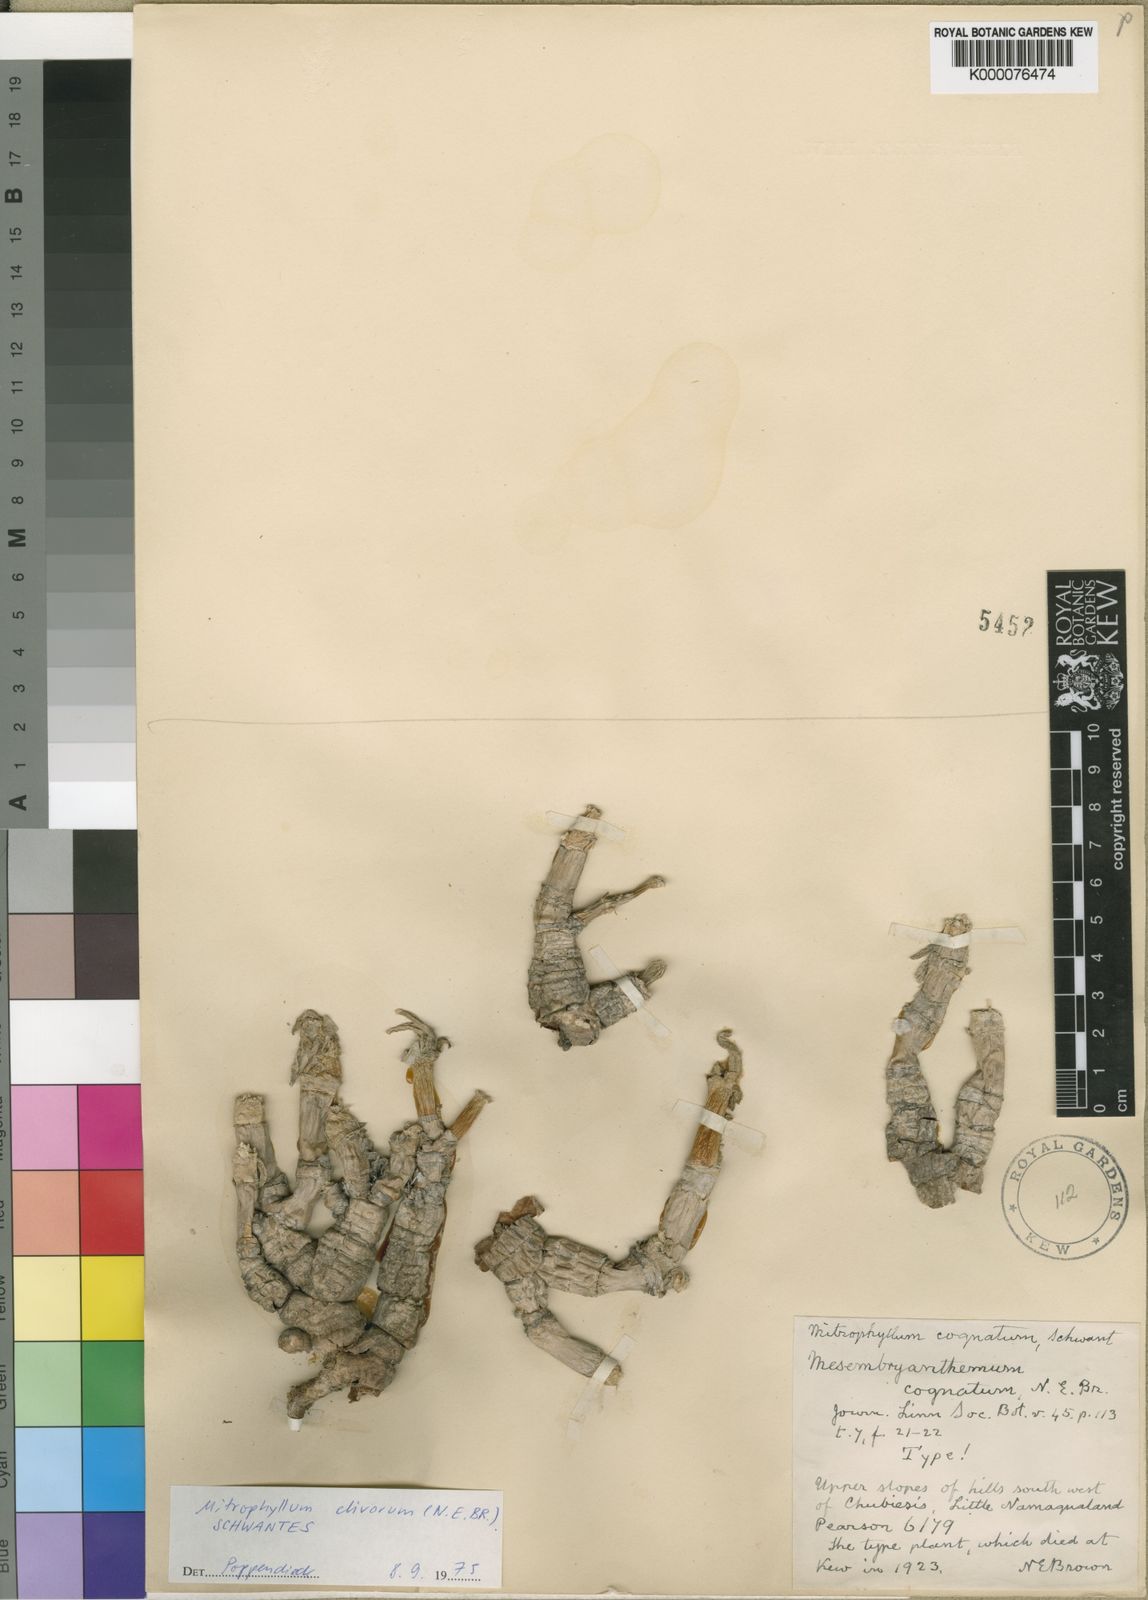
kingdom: Plantae
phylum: Tracheophyta
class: Magnoliopsida
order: Caryophyllales
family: Aizoaceae
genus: Mitrophyllum
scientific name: Mitrophyllum clivorum
